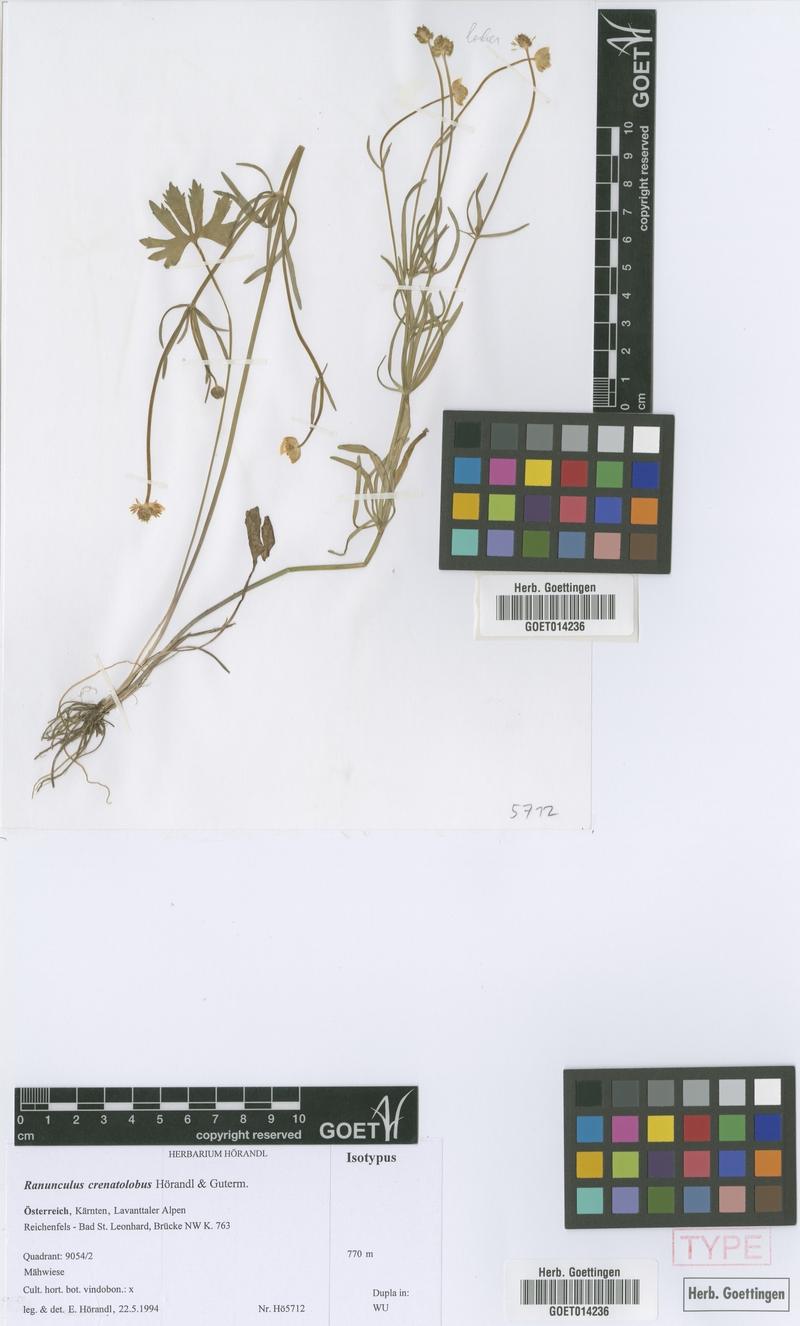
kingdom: Plantae
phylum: Tracheophyta
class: Magnoliopsida
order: Ranunculales
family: Ranunculaceae
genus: Ranunculus
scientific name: Ranunculus crenatolobus
